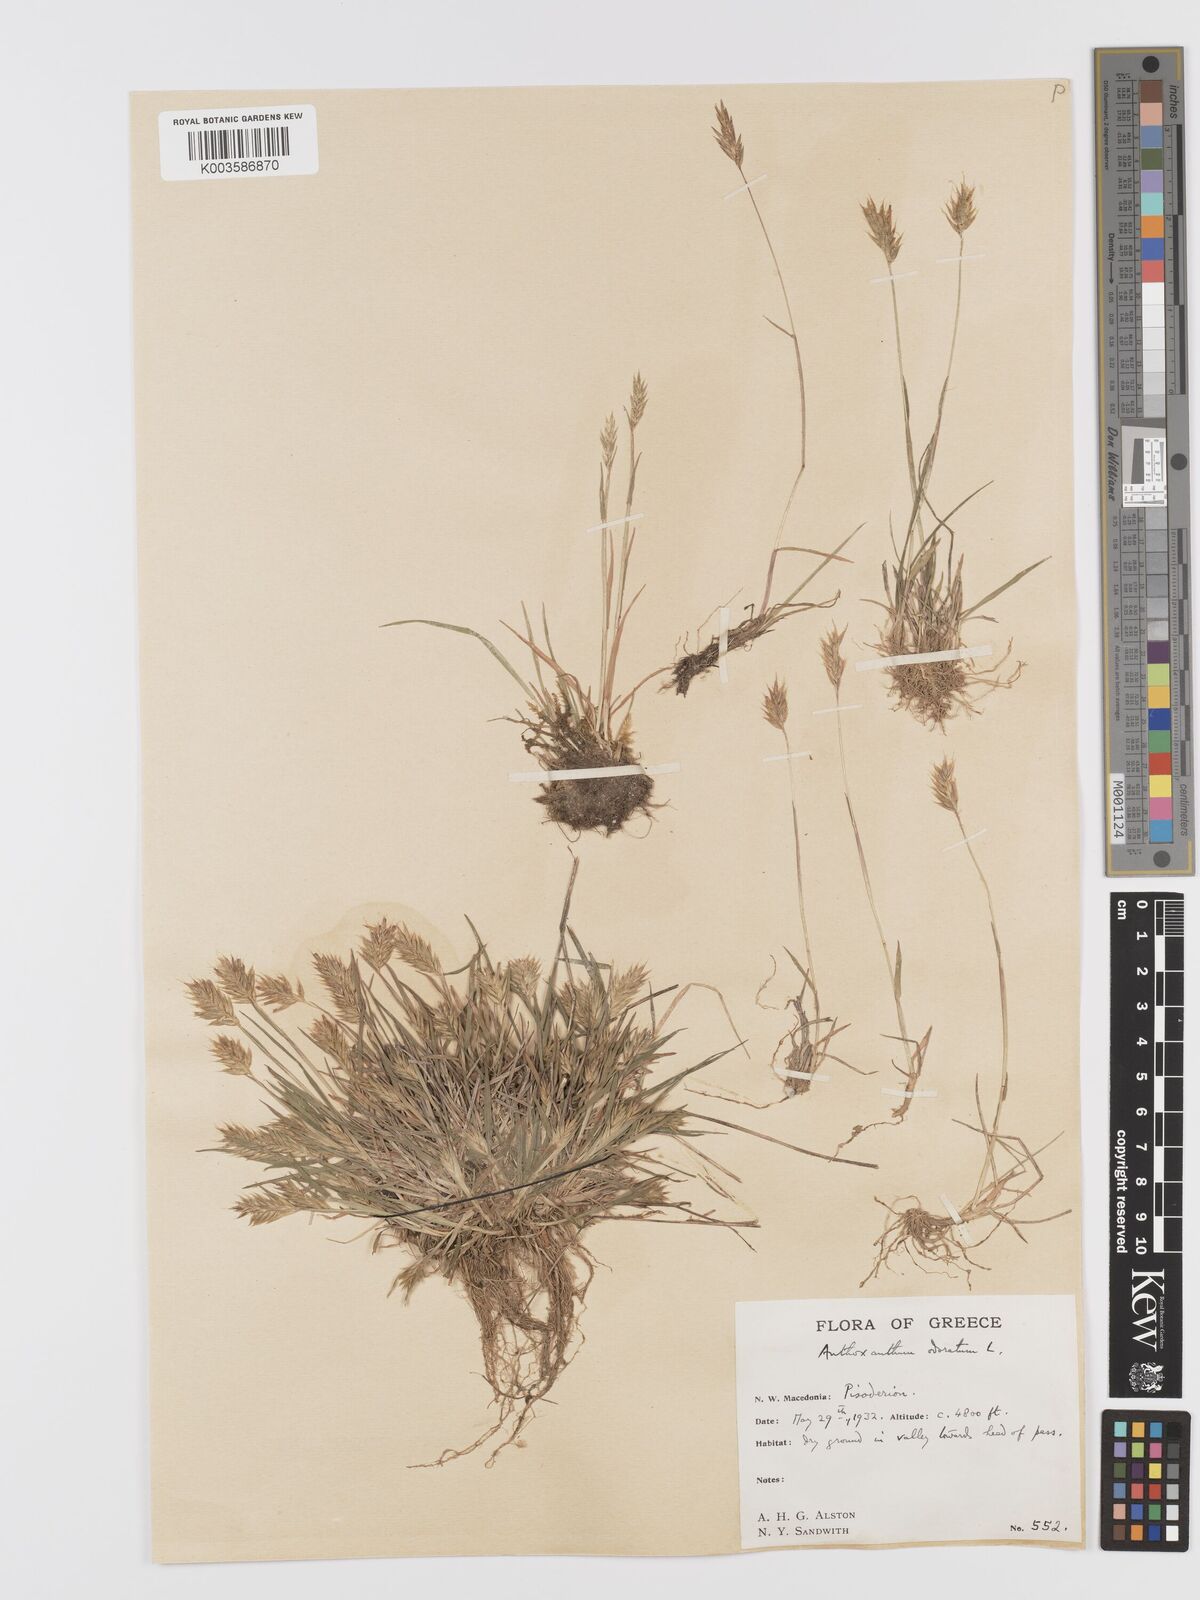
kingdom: Plantae
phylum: Tracheophyta
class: Liliopsida
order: Poales
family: Poaceae
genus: Anthoxanthum
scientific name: Anthoxanthum
